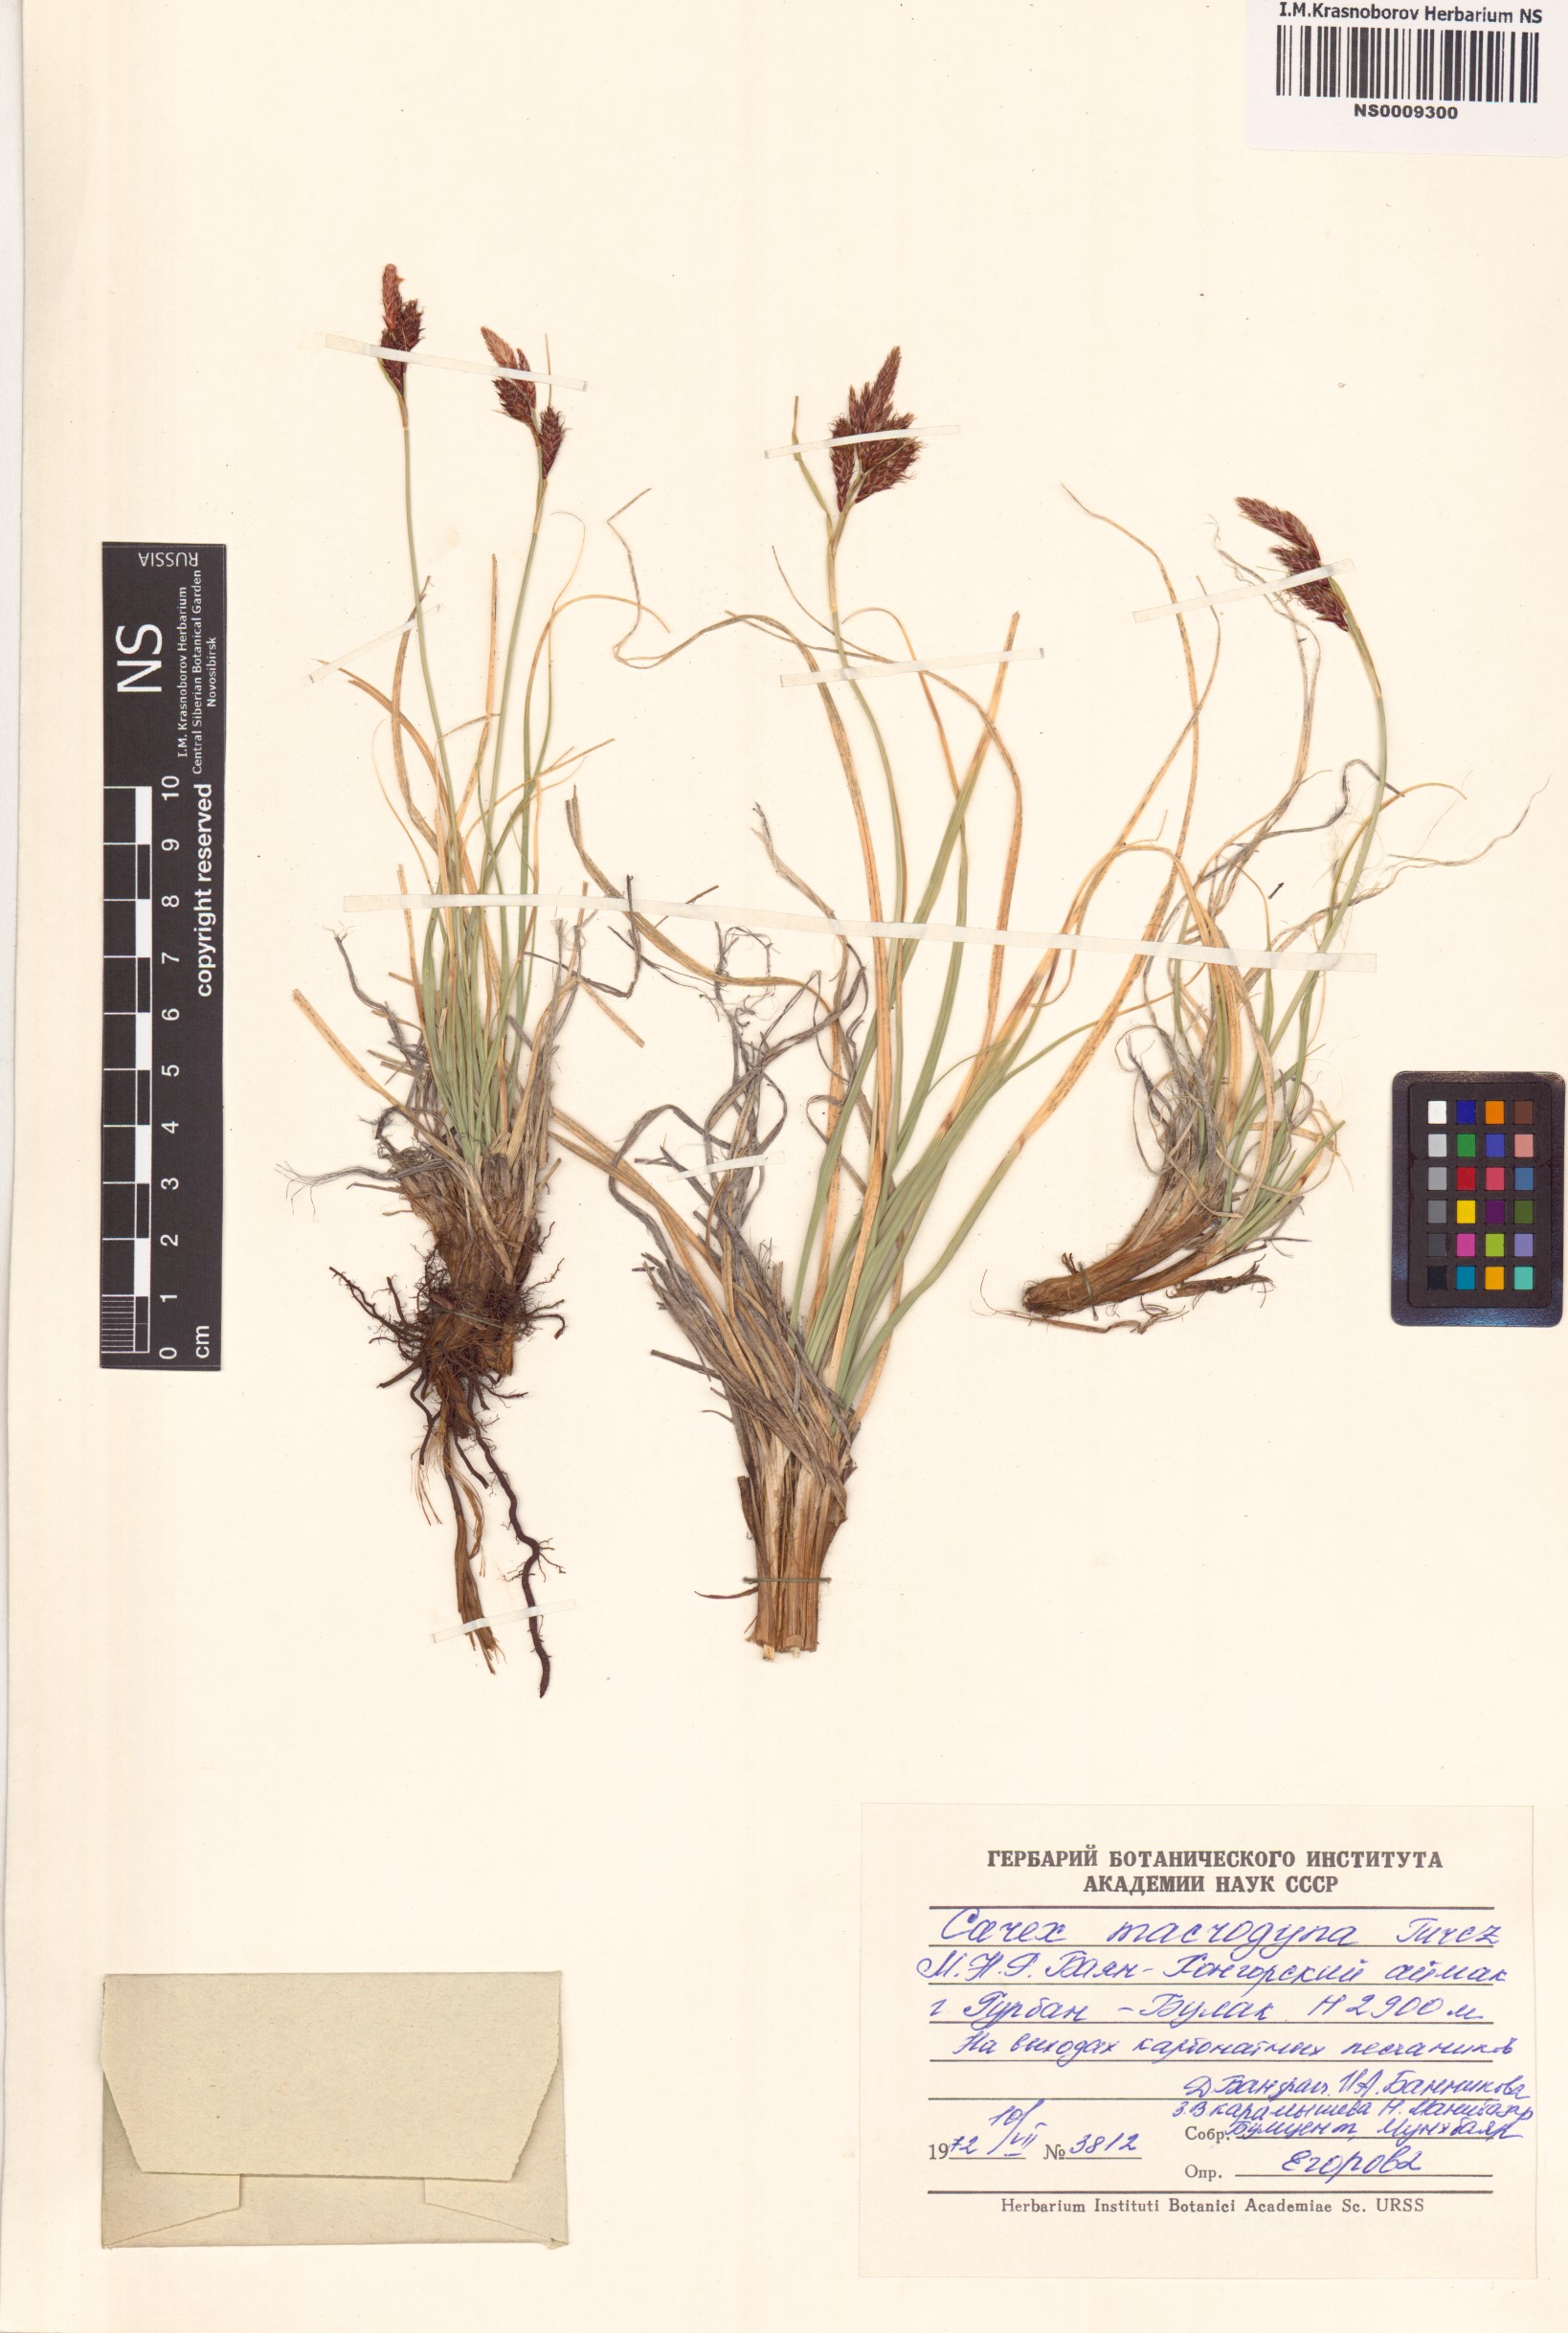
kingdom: Plantae
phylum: Tracheophyta
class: Liliopsida
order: Poales
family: Cyperaceae
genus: Carex
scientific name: Carex petricosa
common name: Rock sedge
